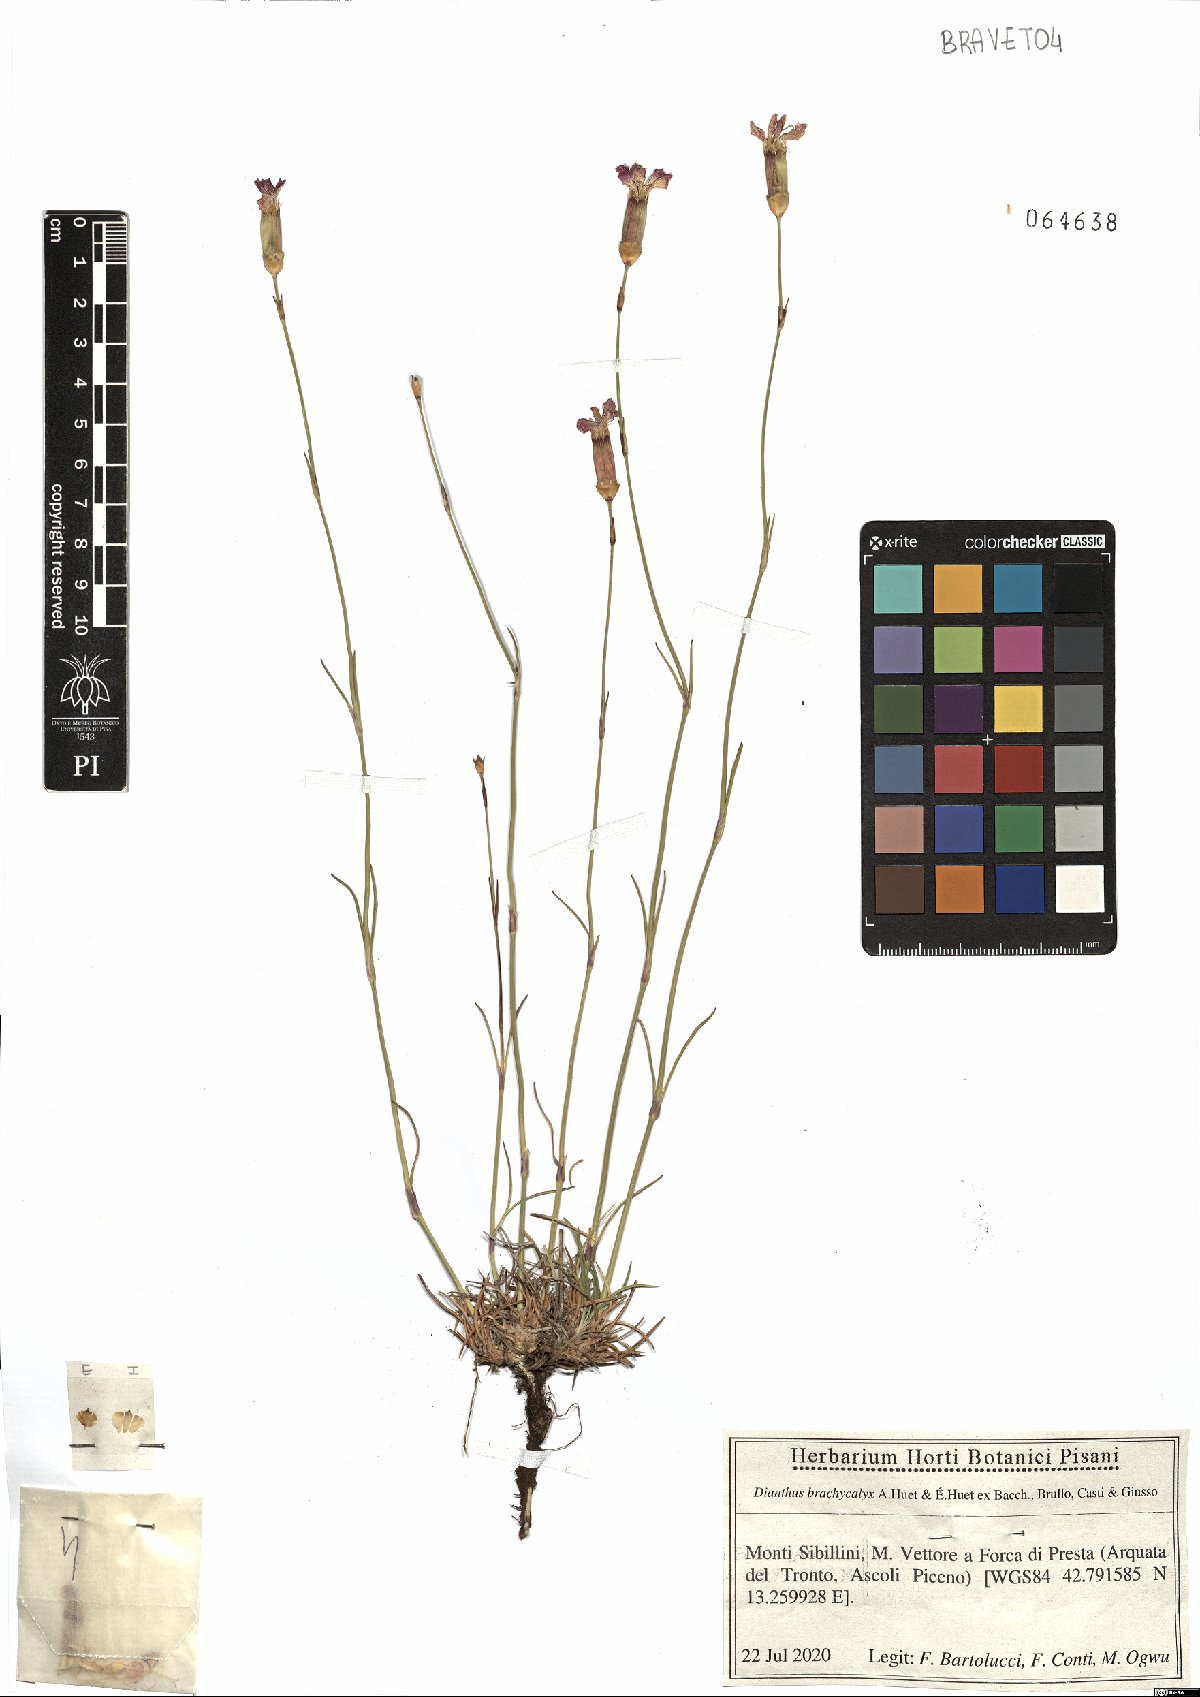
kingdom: Plantae
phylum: Tracheophyta
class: Magnoliopsida
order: Caryophyllales
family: Caryophyllaceae
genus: Dianthus
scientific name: Dianthus brachycalyx
